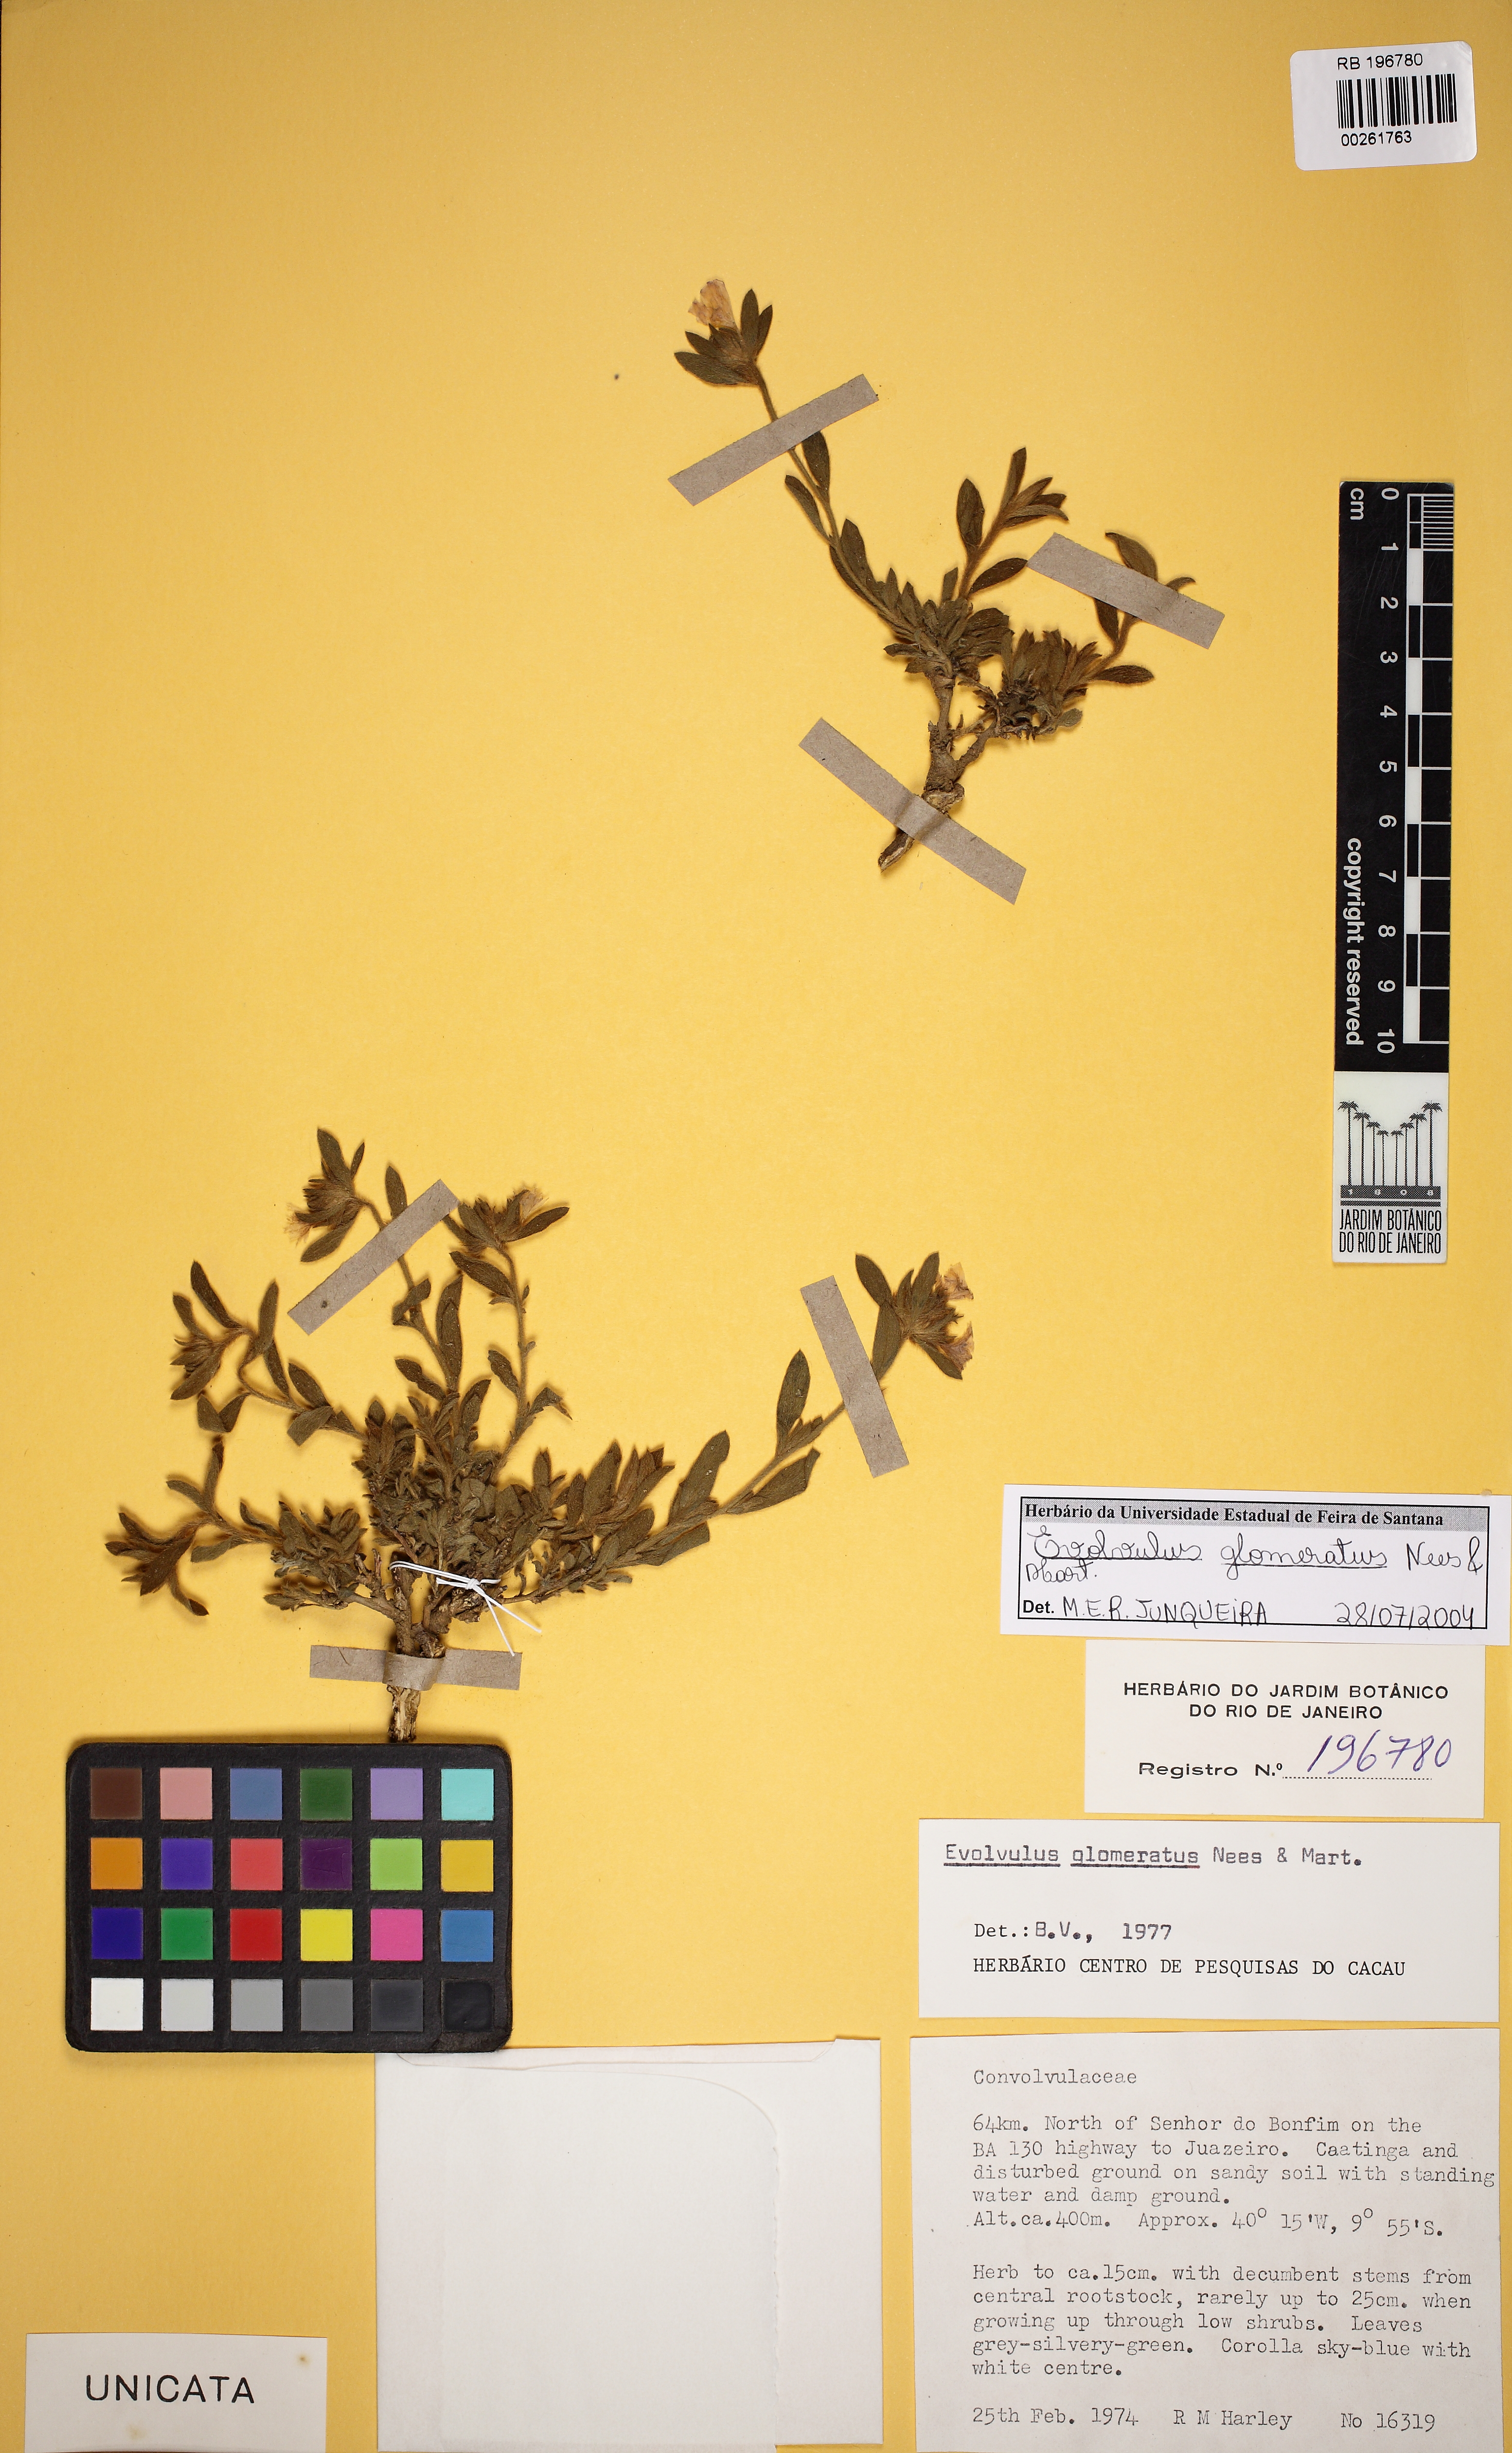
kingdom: Plantae
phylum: Tracheophyta
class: Magnoliopsida
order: Solanales
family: Convolvulaceae
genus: Evolvulus
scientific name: Evolvulus glomeratus
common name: Brazilian dwarf morning-glory
